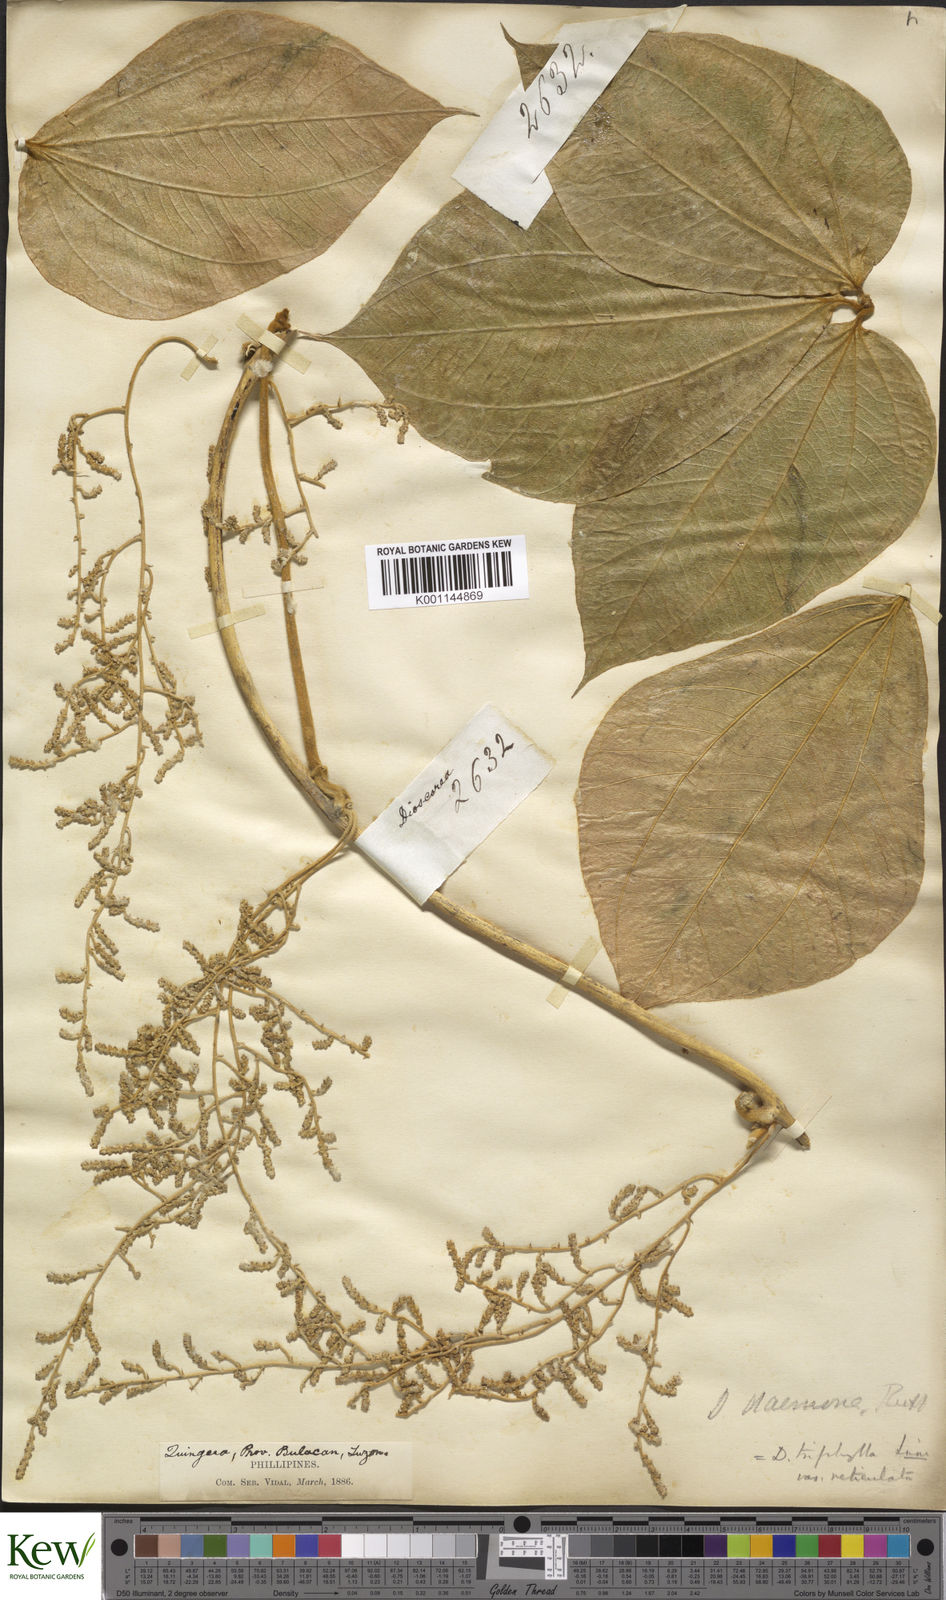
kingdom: Plantae
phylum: Tracheophyta
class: Liliopsida
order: Dioscoreales
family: Dioscoreaceae
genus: Dioscorea
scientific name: Dioscorea hispida
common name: Asiatic bitter yam
